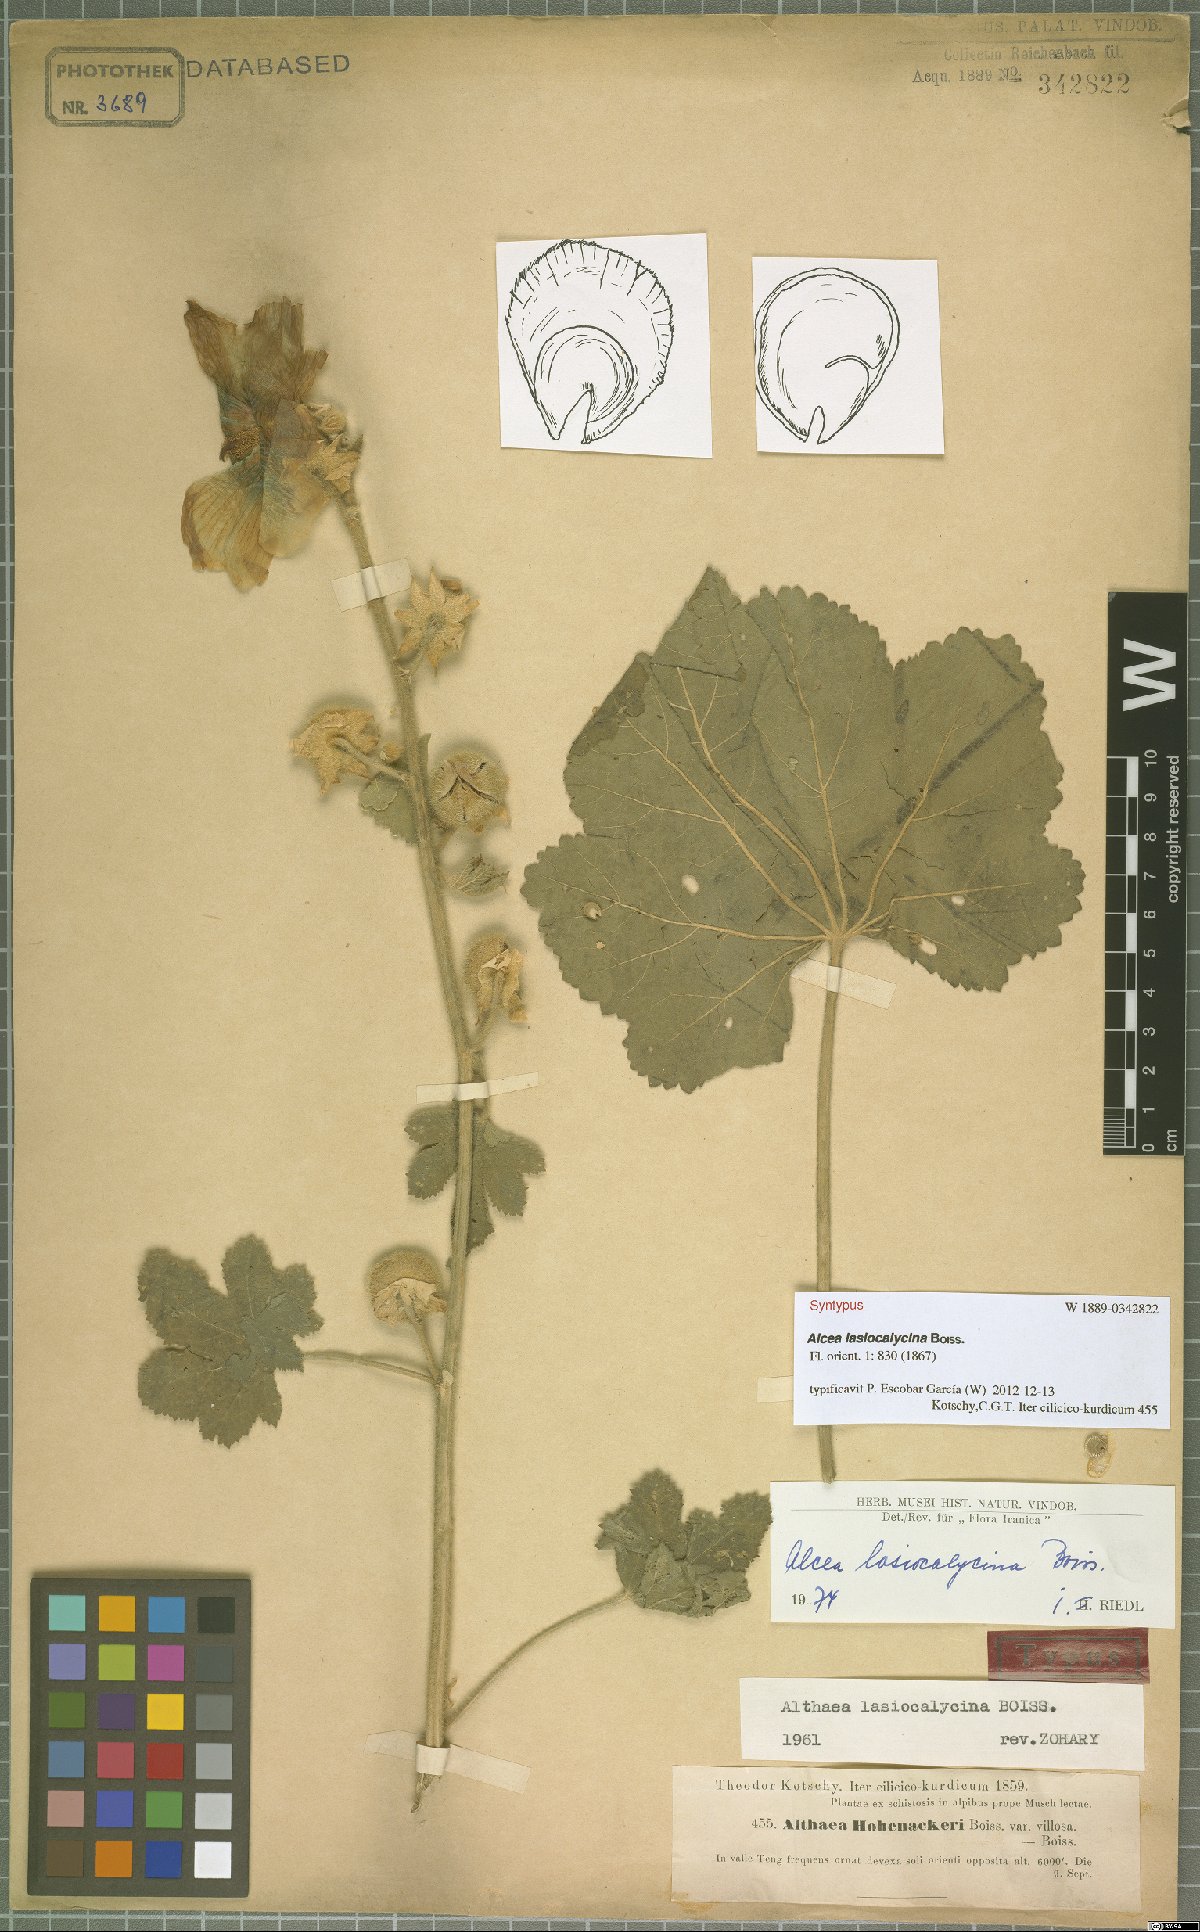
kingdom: Plantae
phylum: Tracheophyta
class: Magnoliopsida
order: Malvales
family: Malvaceae
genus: Alcea
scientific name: Alcea lasiocalycina
